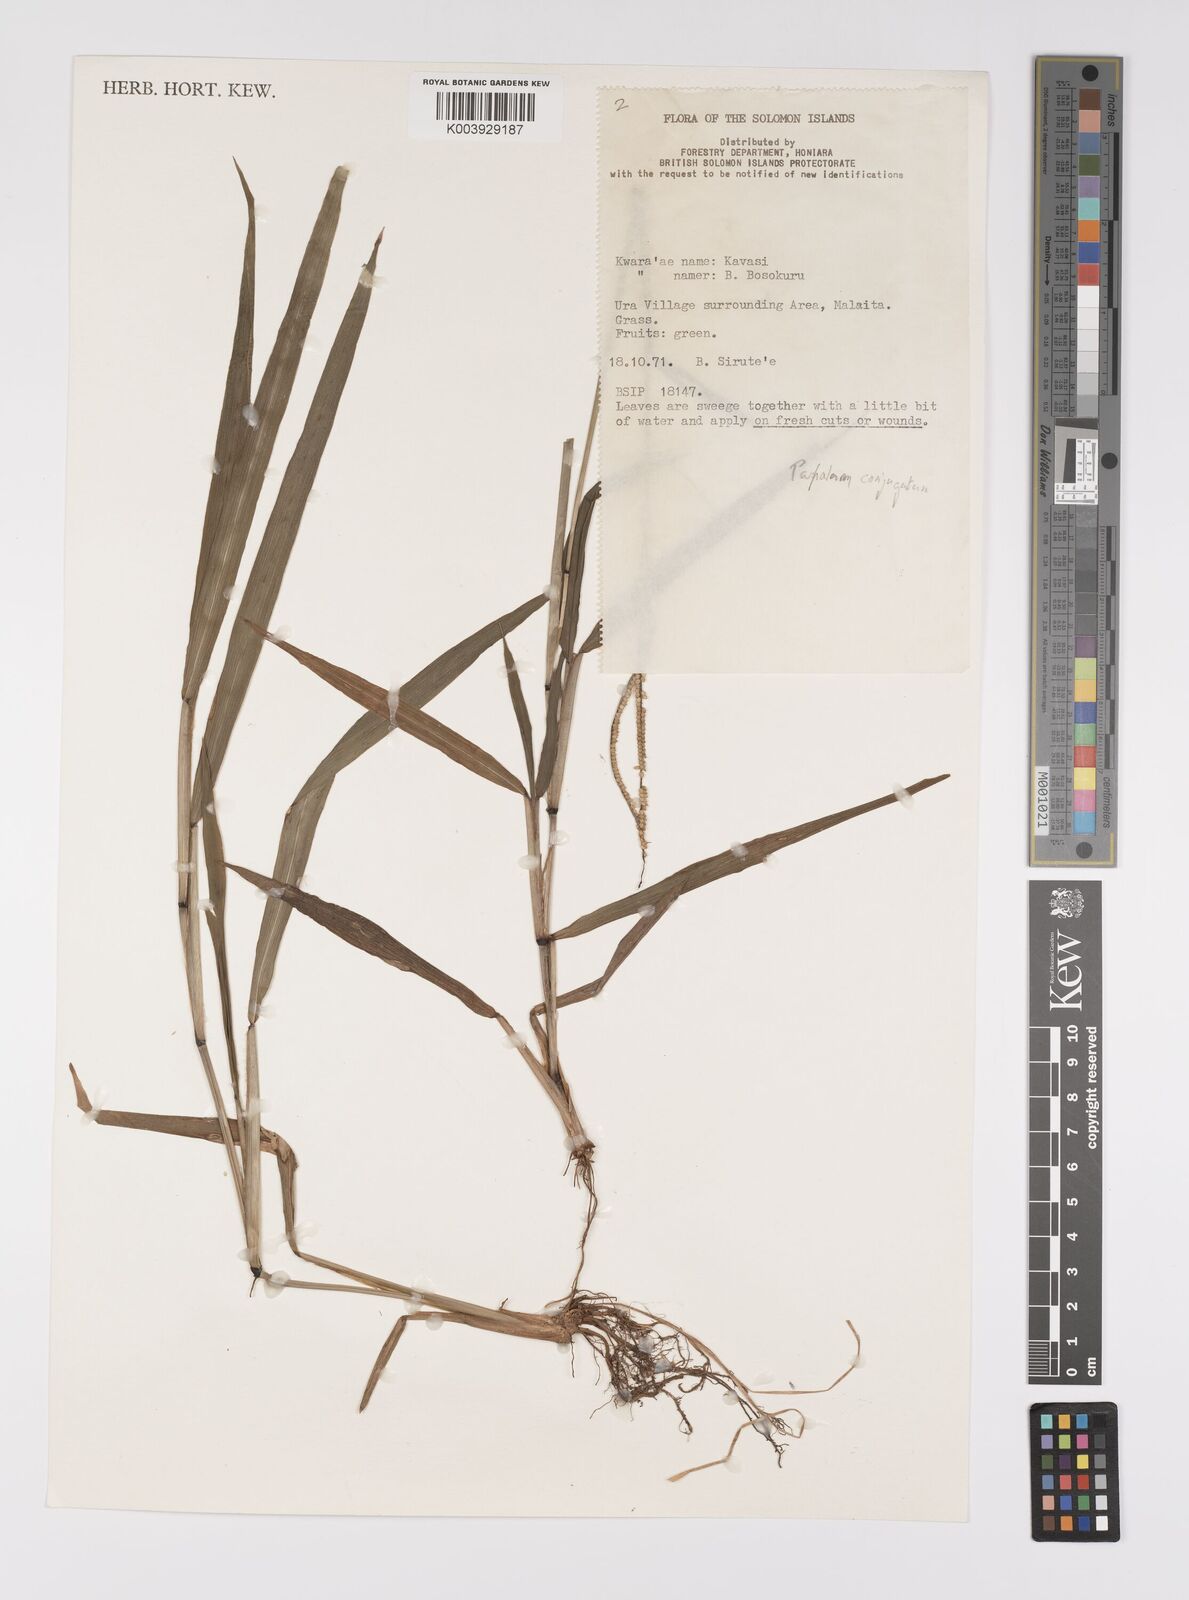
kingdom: Plantae
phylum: Tracheophyta
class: Liliopsida
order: Poales
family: Poaceae
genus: Paspalum
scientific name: Paspalum conjugatum
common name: Hilograss
